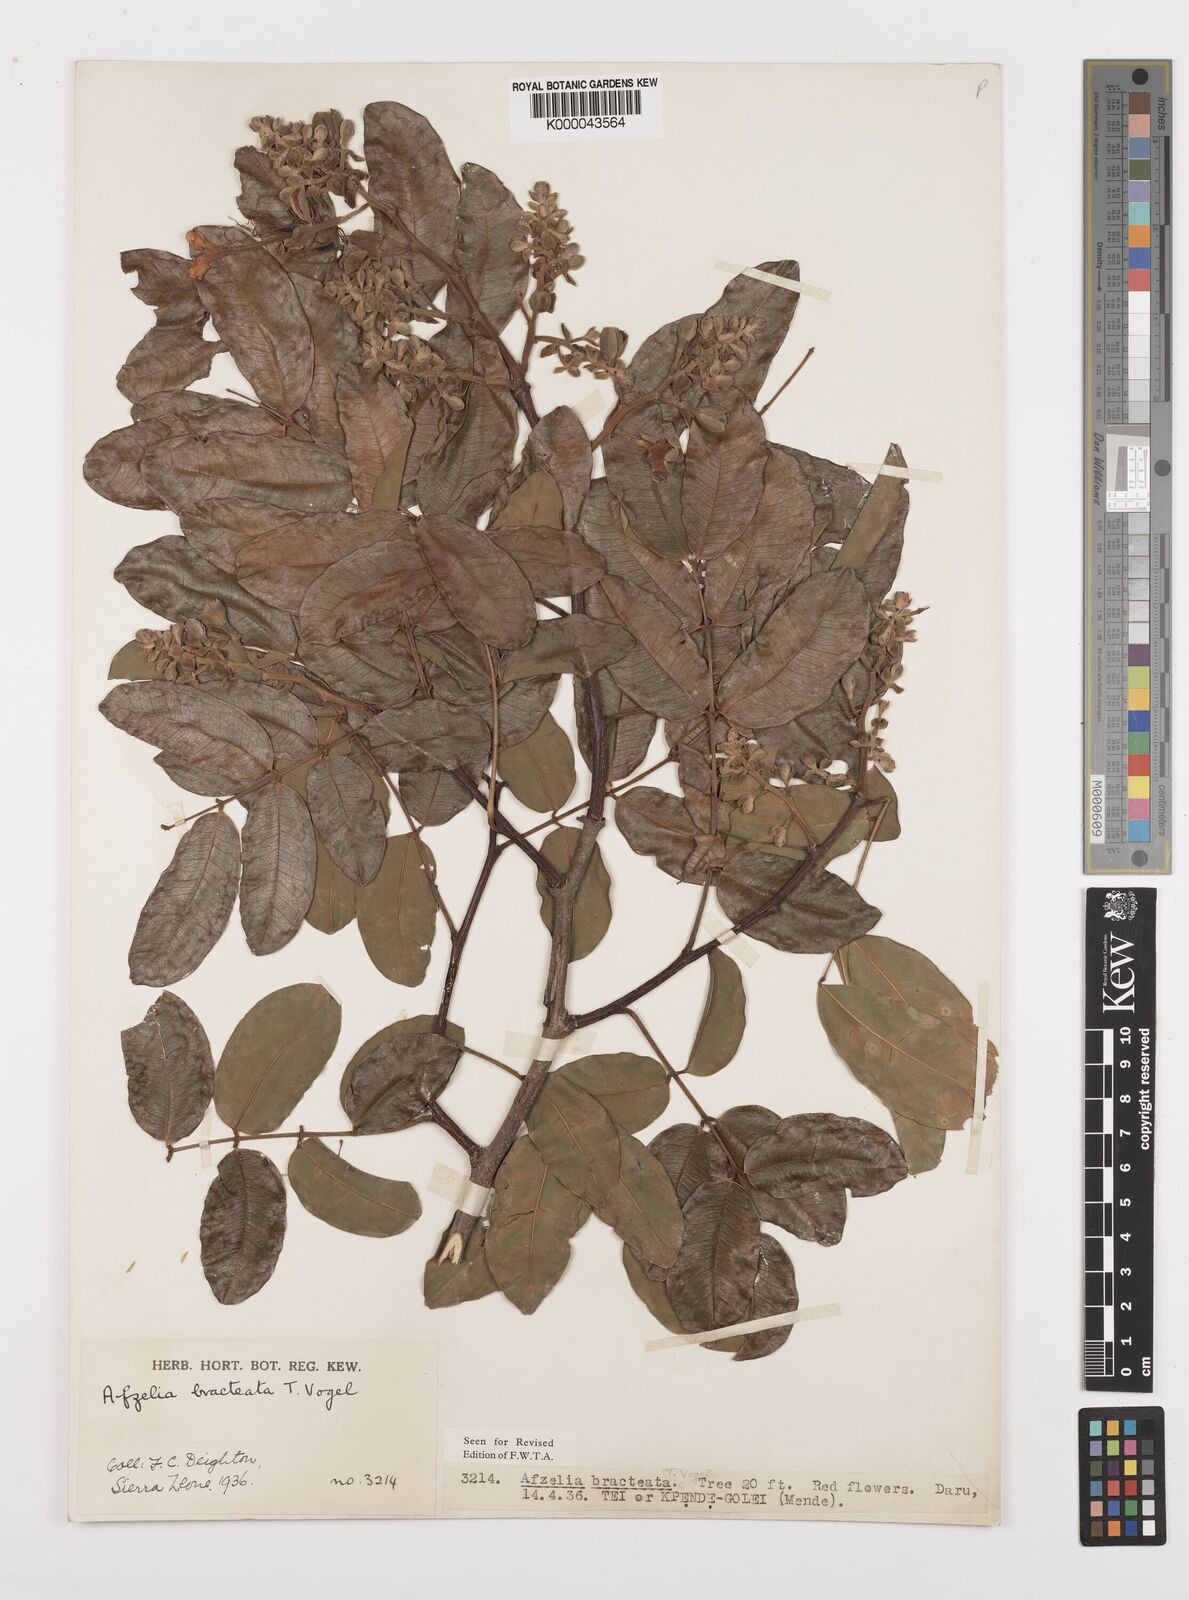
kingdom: Plantae
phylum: Tracheophyta
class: Magnoliopsida
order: Fabales
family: Fabaceae
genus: Afzelia
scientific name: Afzelia
